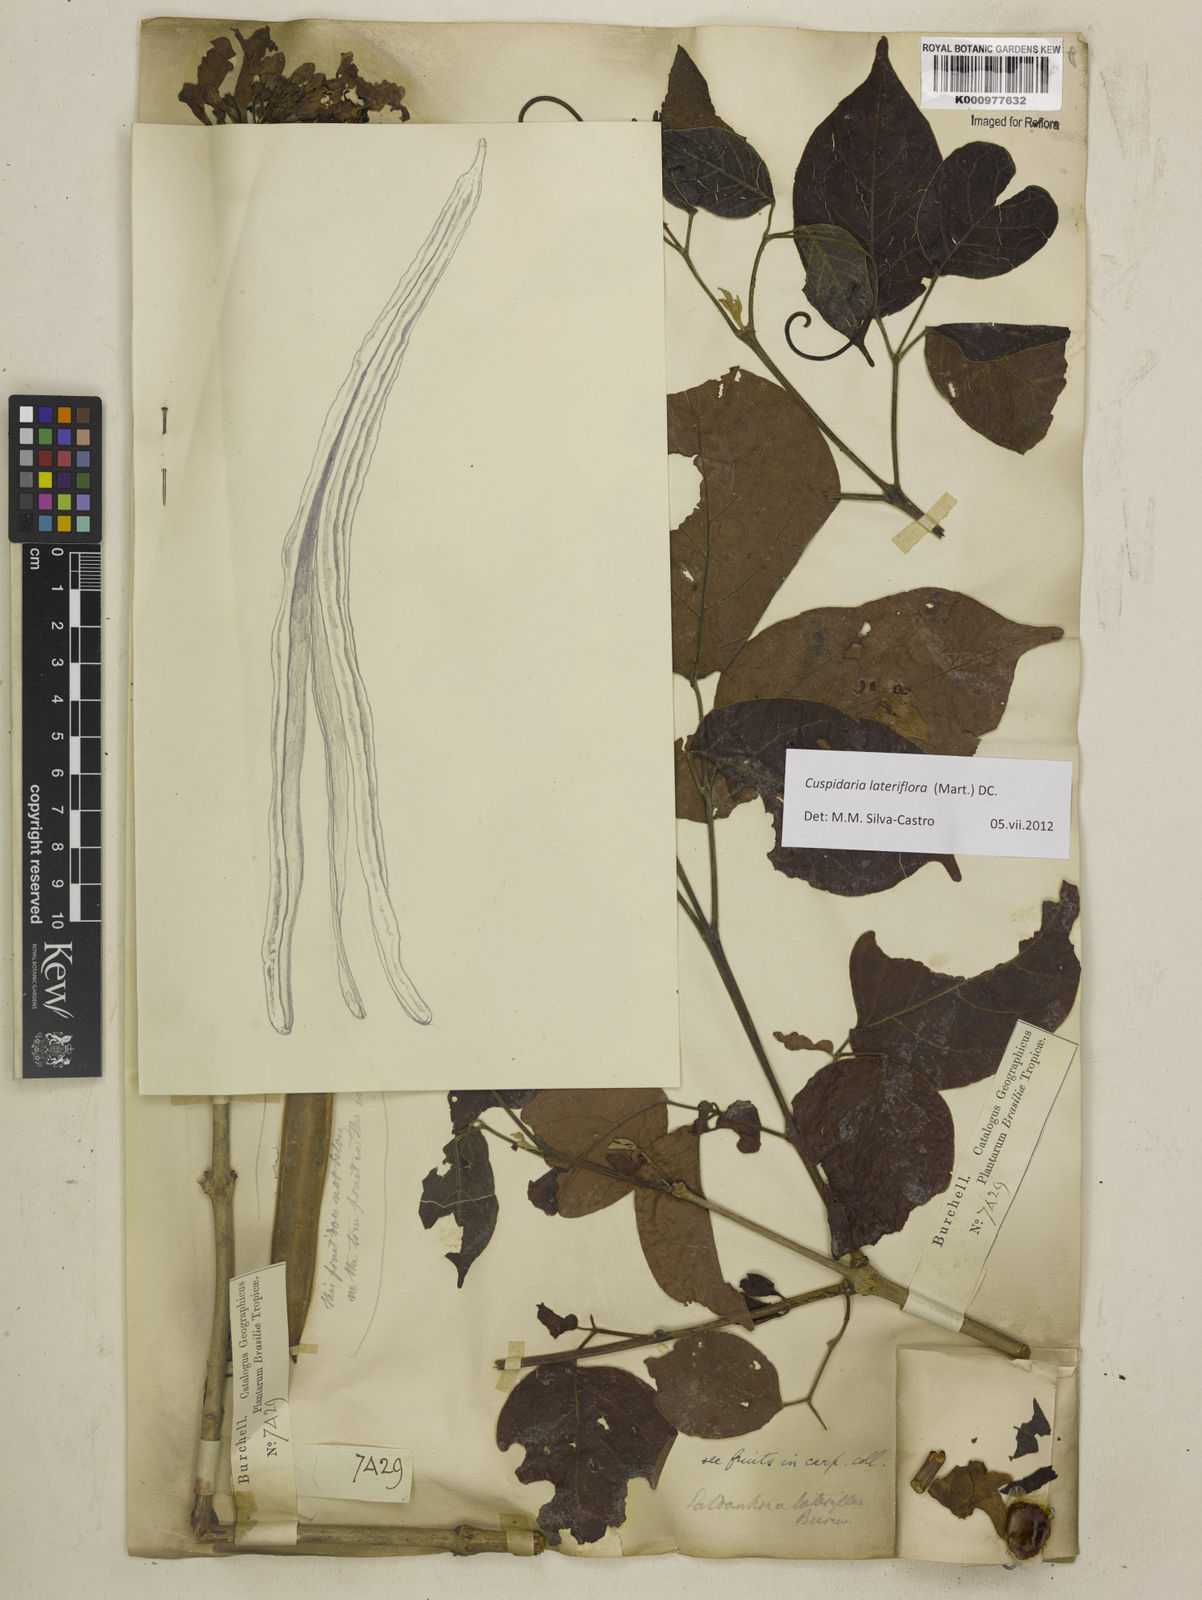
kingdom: Plantae
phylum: Tracheophyta
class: Magnoliopsida
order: Lamiales
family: Bignoniaceae
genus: Cuspidaria
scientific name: Cuspidaria lateriflora
